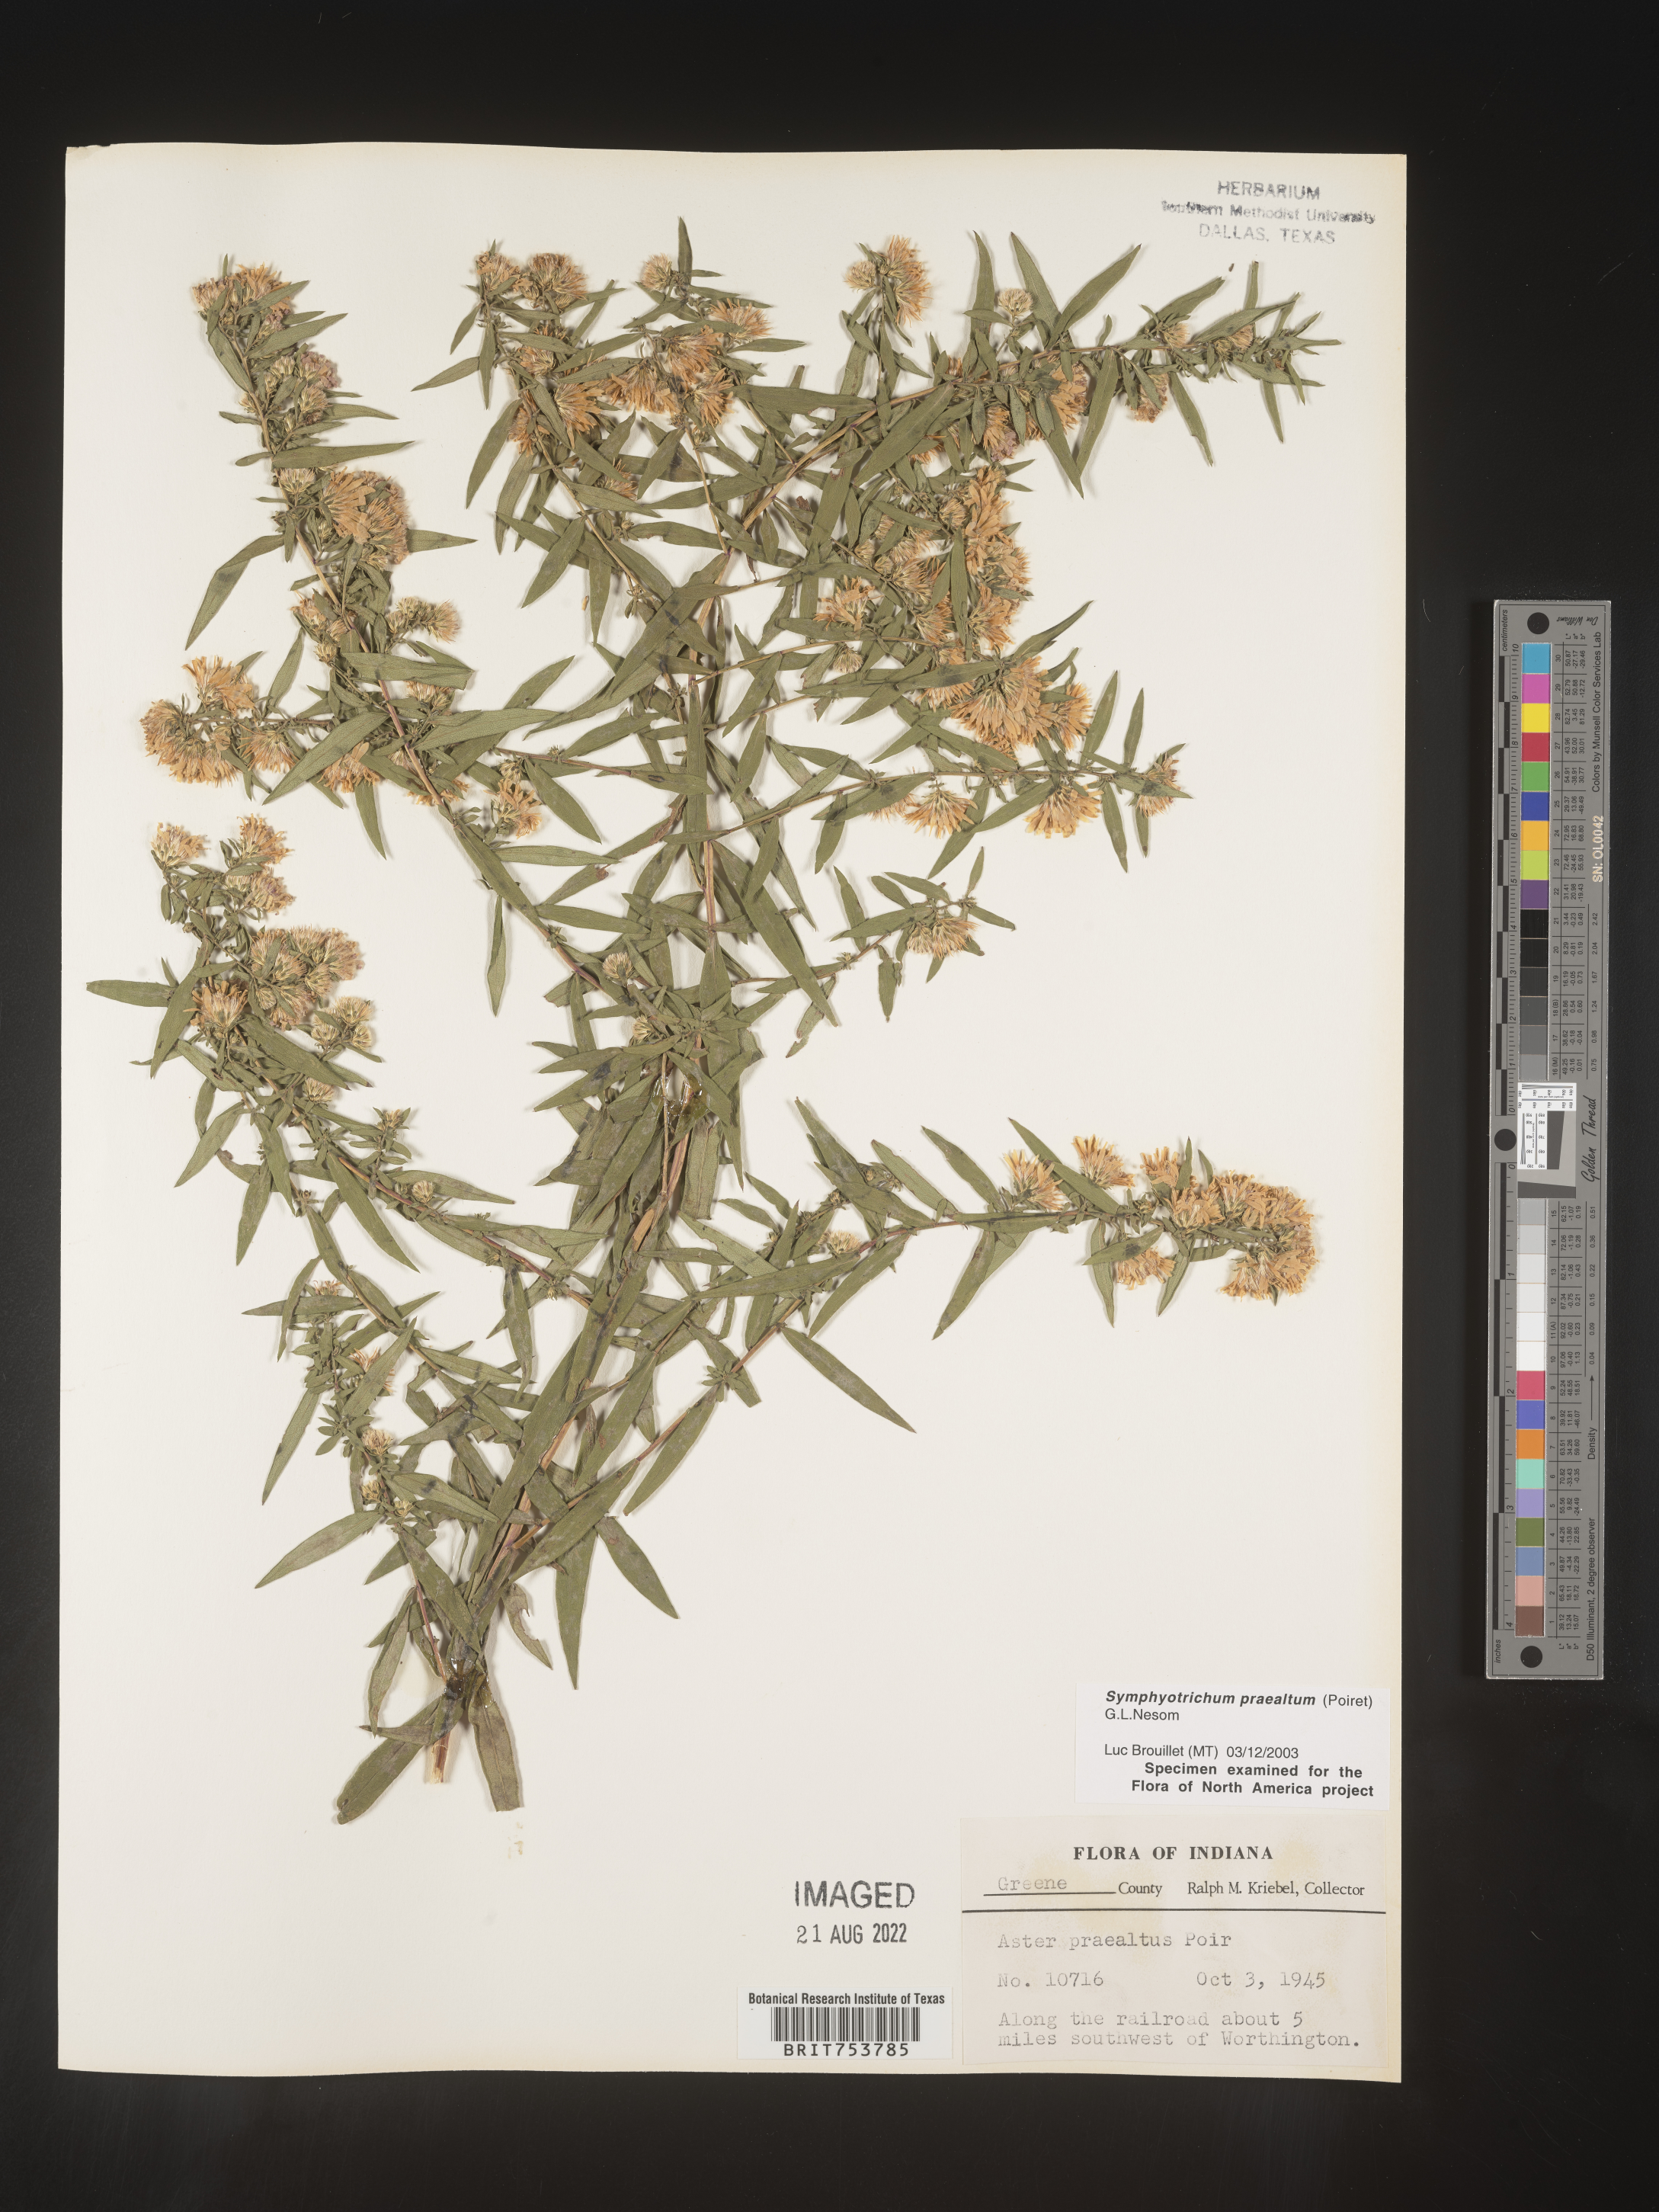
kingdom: Plantae
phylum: Tracheophyta
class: Magnoliopsida
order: Asterales
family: Asteraceae
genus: Symphyotrichum
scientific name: Symphyotrichum praealtum
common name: Willow aster
